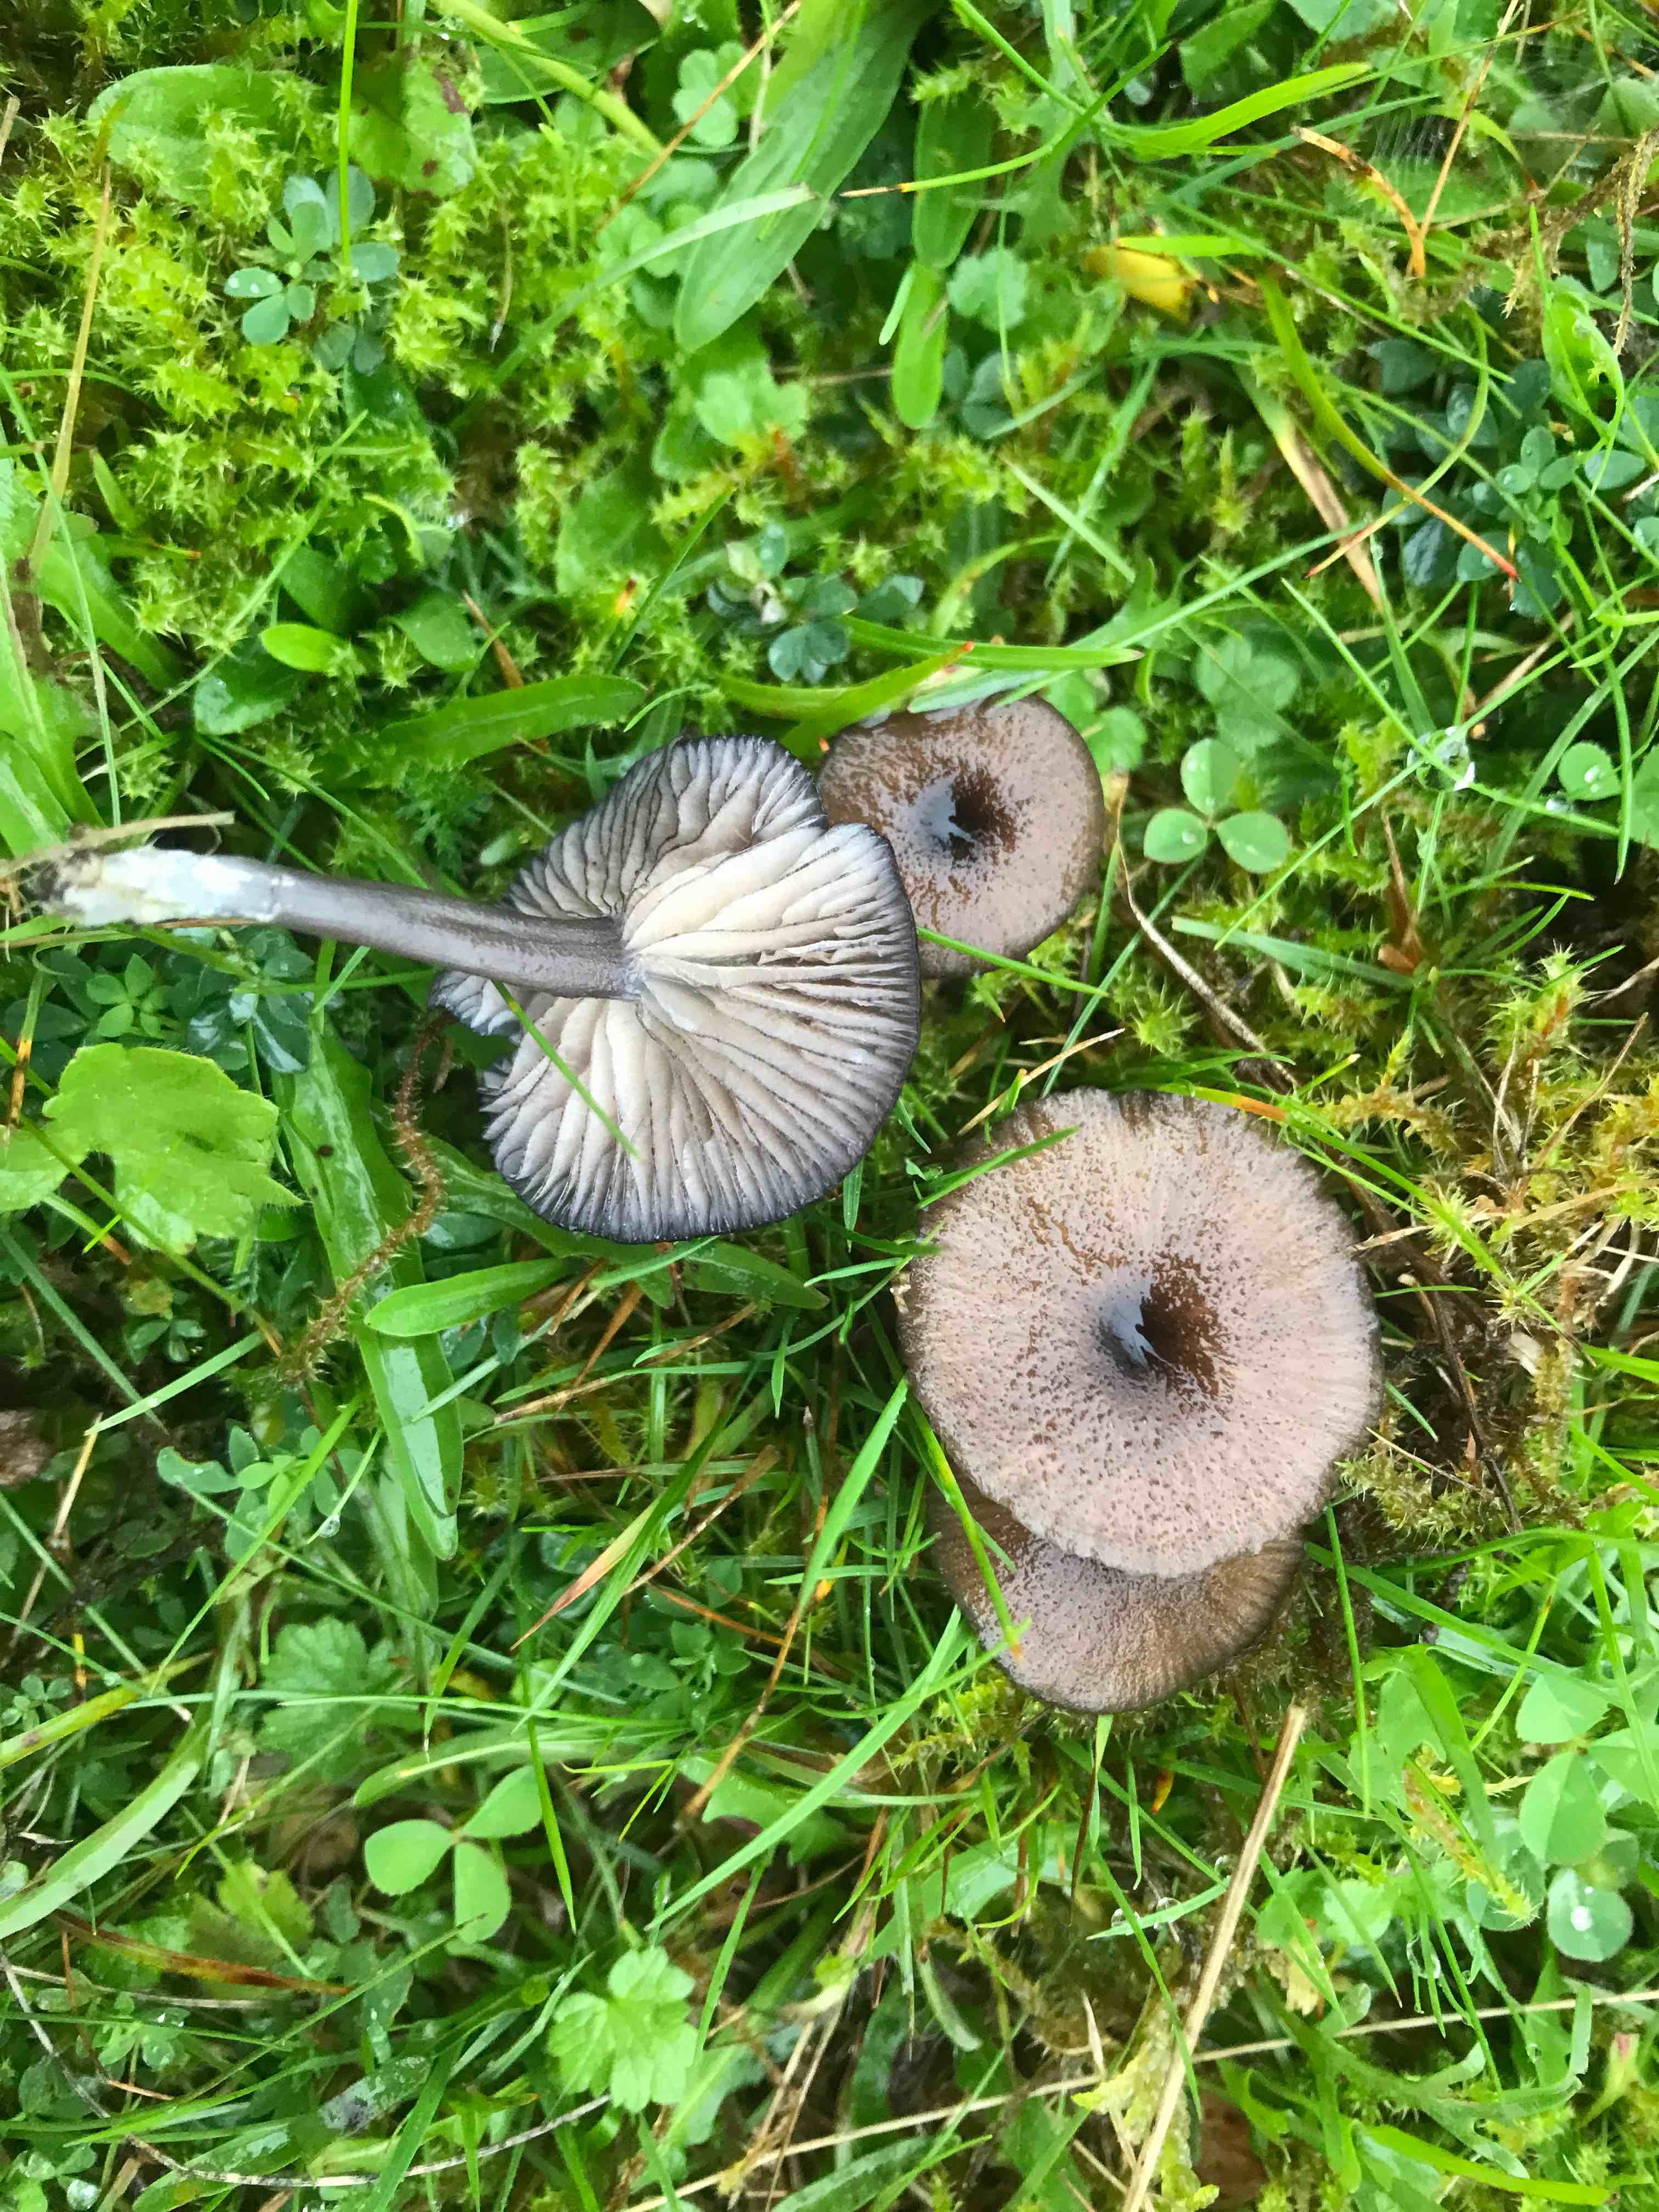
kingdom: Fungi
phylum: Basidiomycota
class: Agaricomycetes
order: Agaricales
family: Entolomataceae
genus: Entoloma
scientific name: Entoloma
